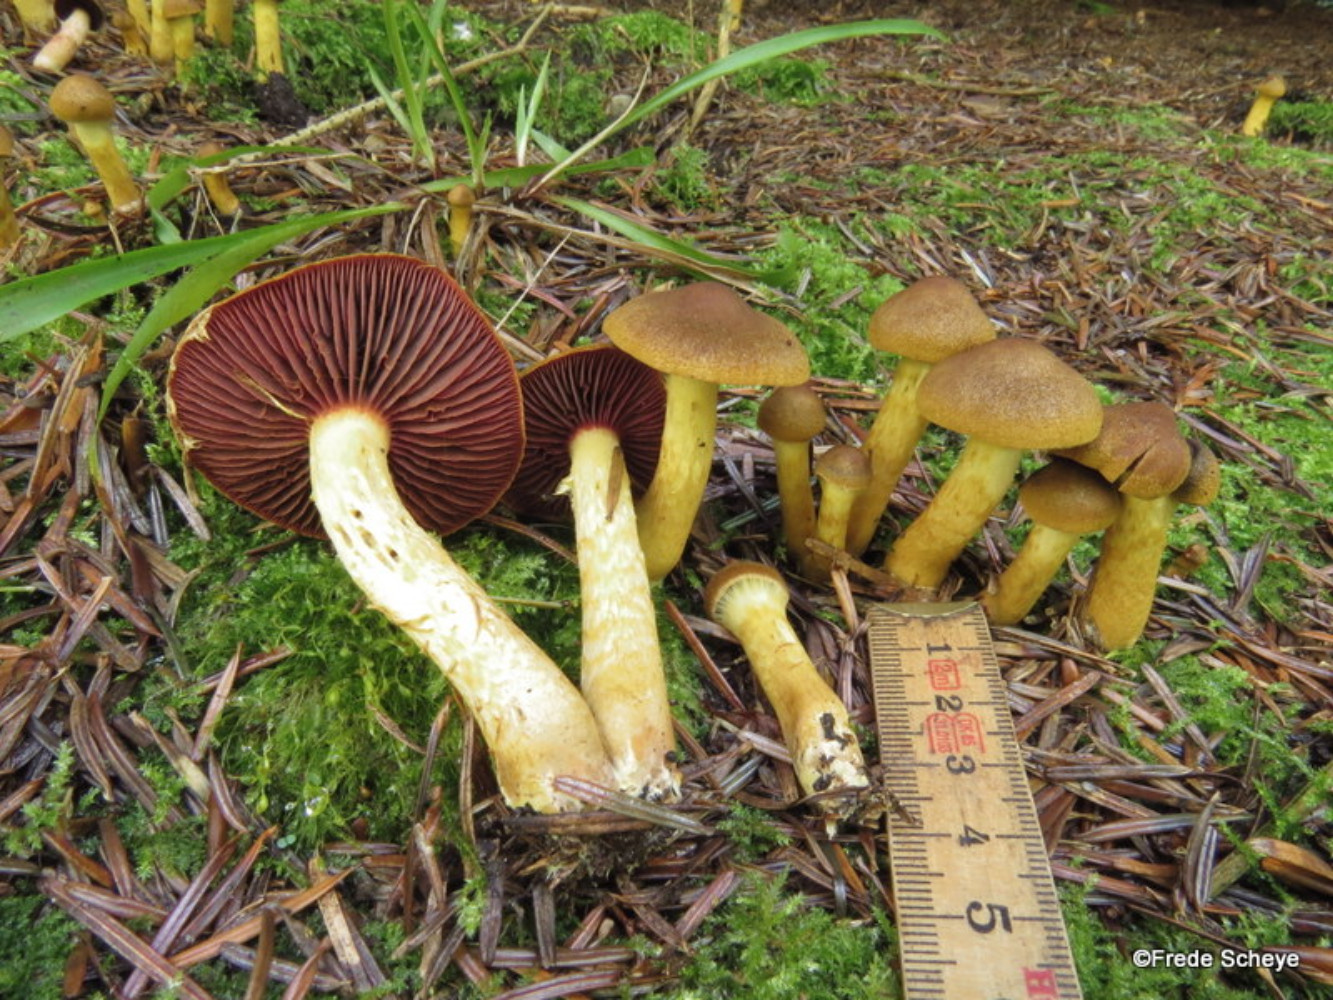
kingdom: Fungi
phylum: Basidiomycota
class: Agaricomycetes
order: Agaricales
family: Cortinariaceae
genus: Cortinarius
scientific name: Cortinarius
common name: cinnoberbladet slørhat
